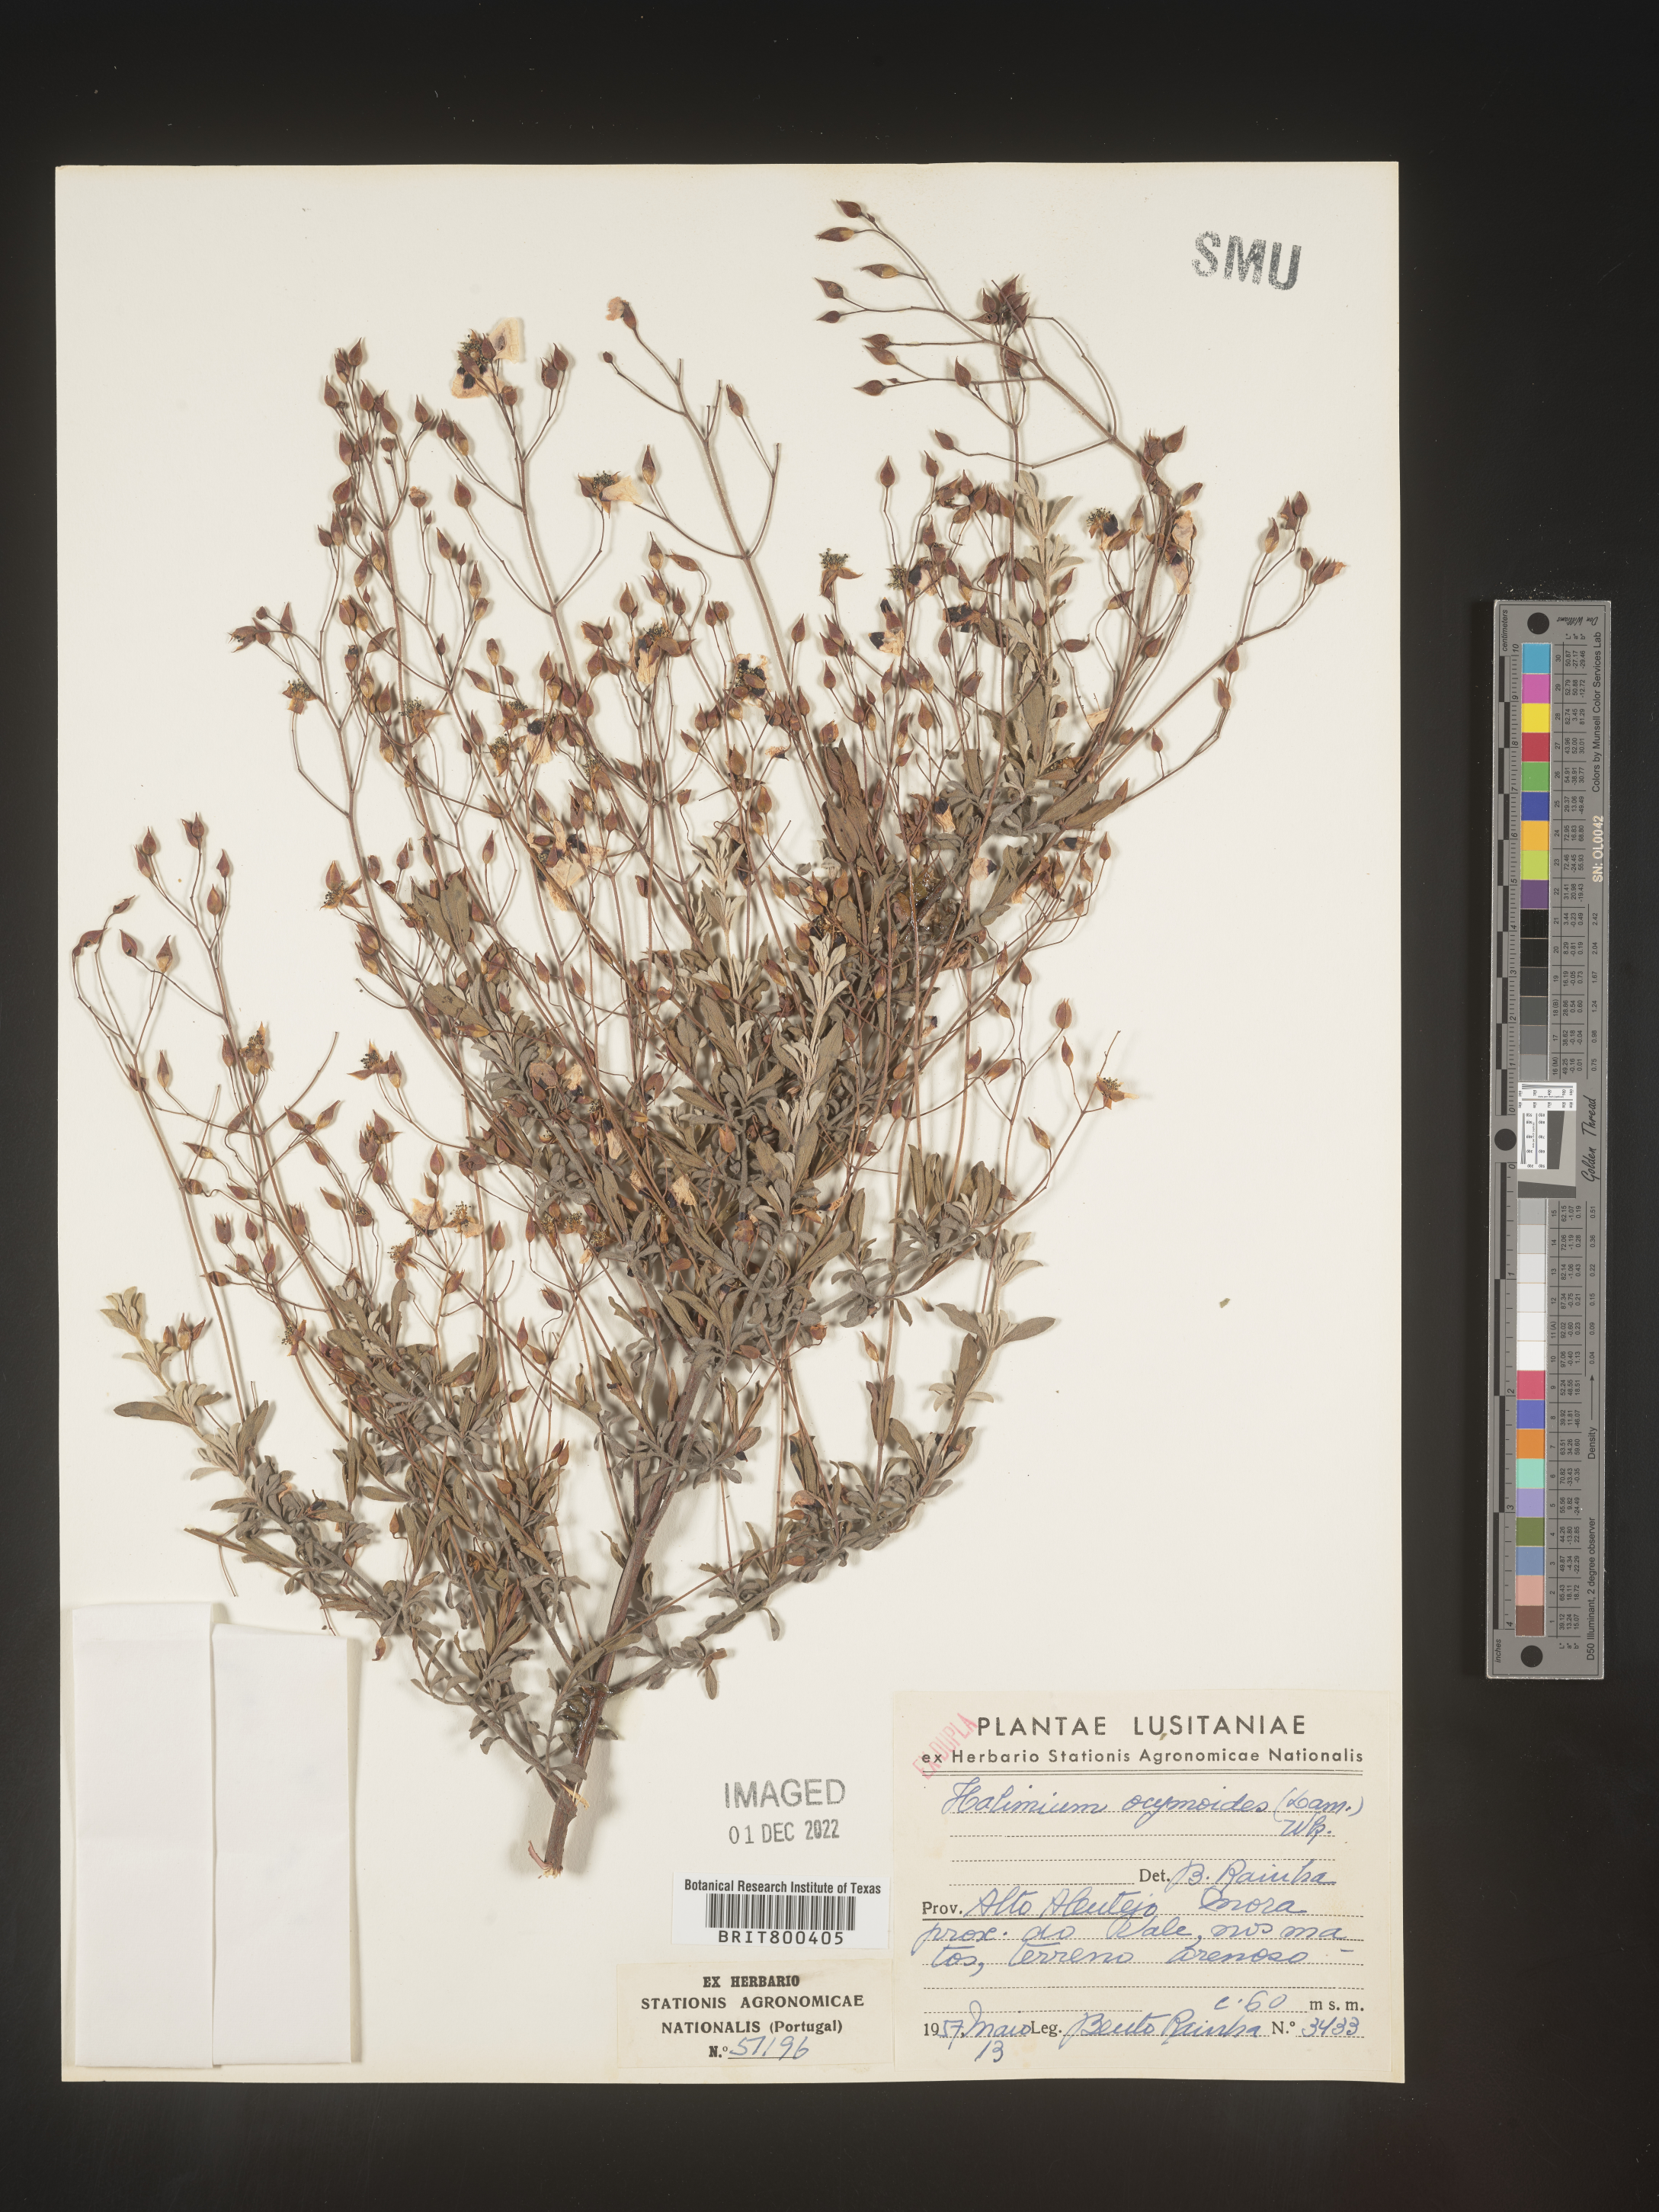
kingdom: Plantae
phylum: Tracheophyta
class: Magnoliopsida
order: Malvales
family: Cistaceae
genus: Halimium
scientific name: Halimium
